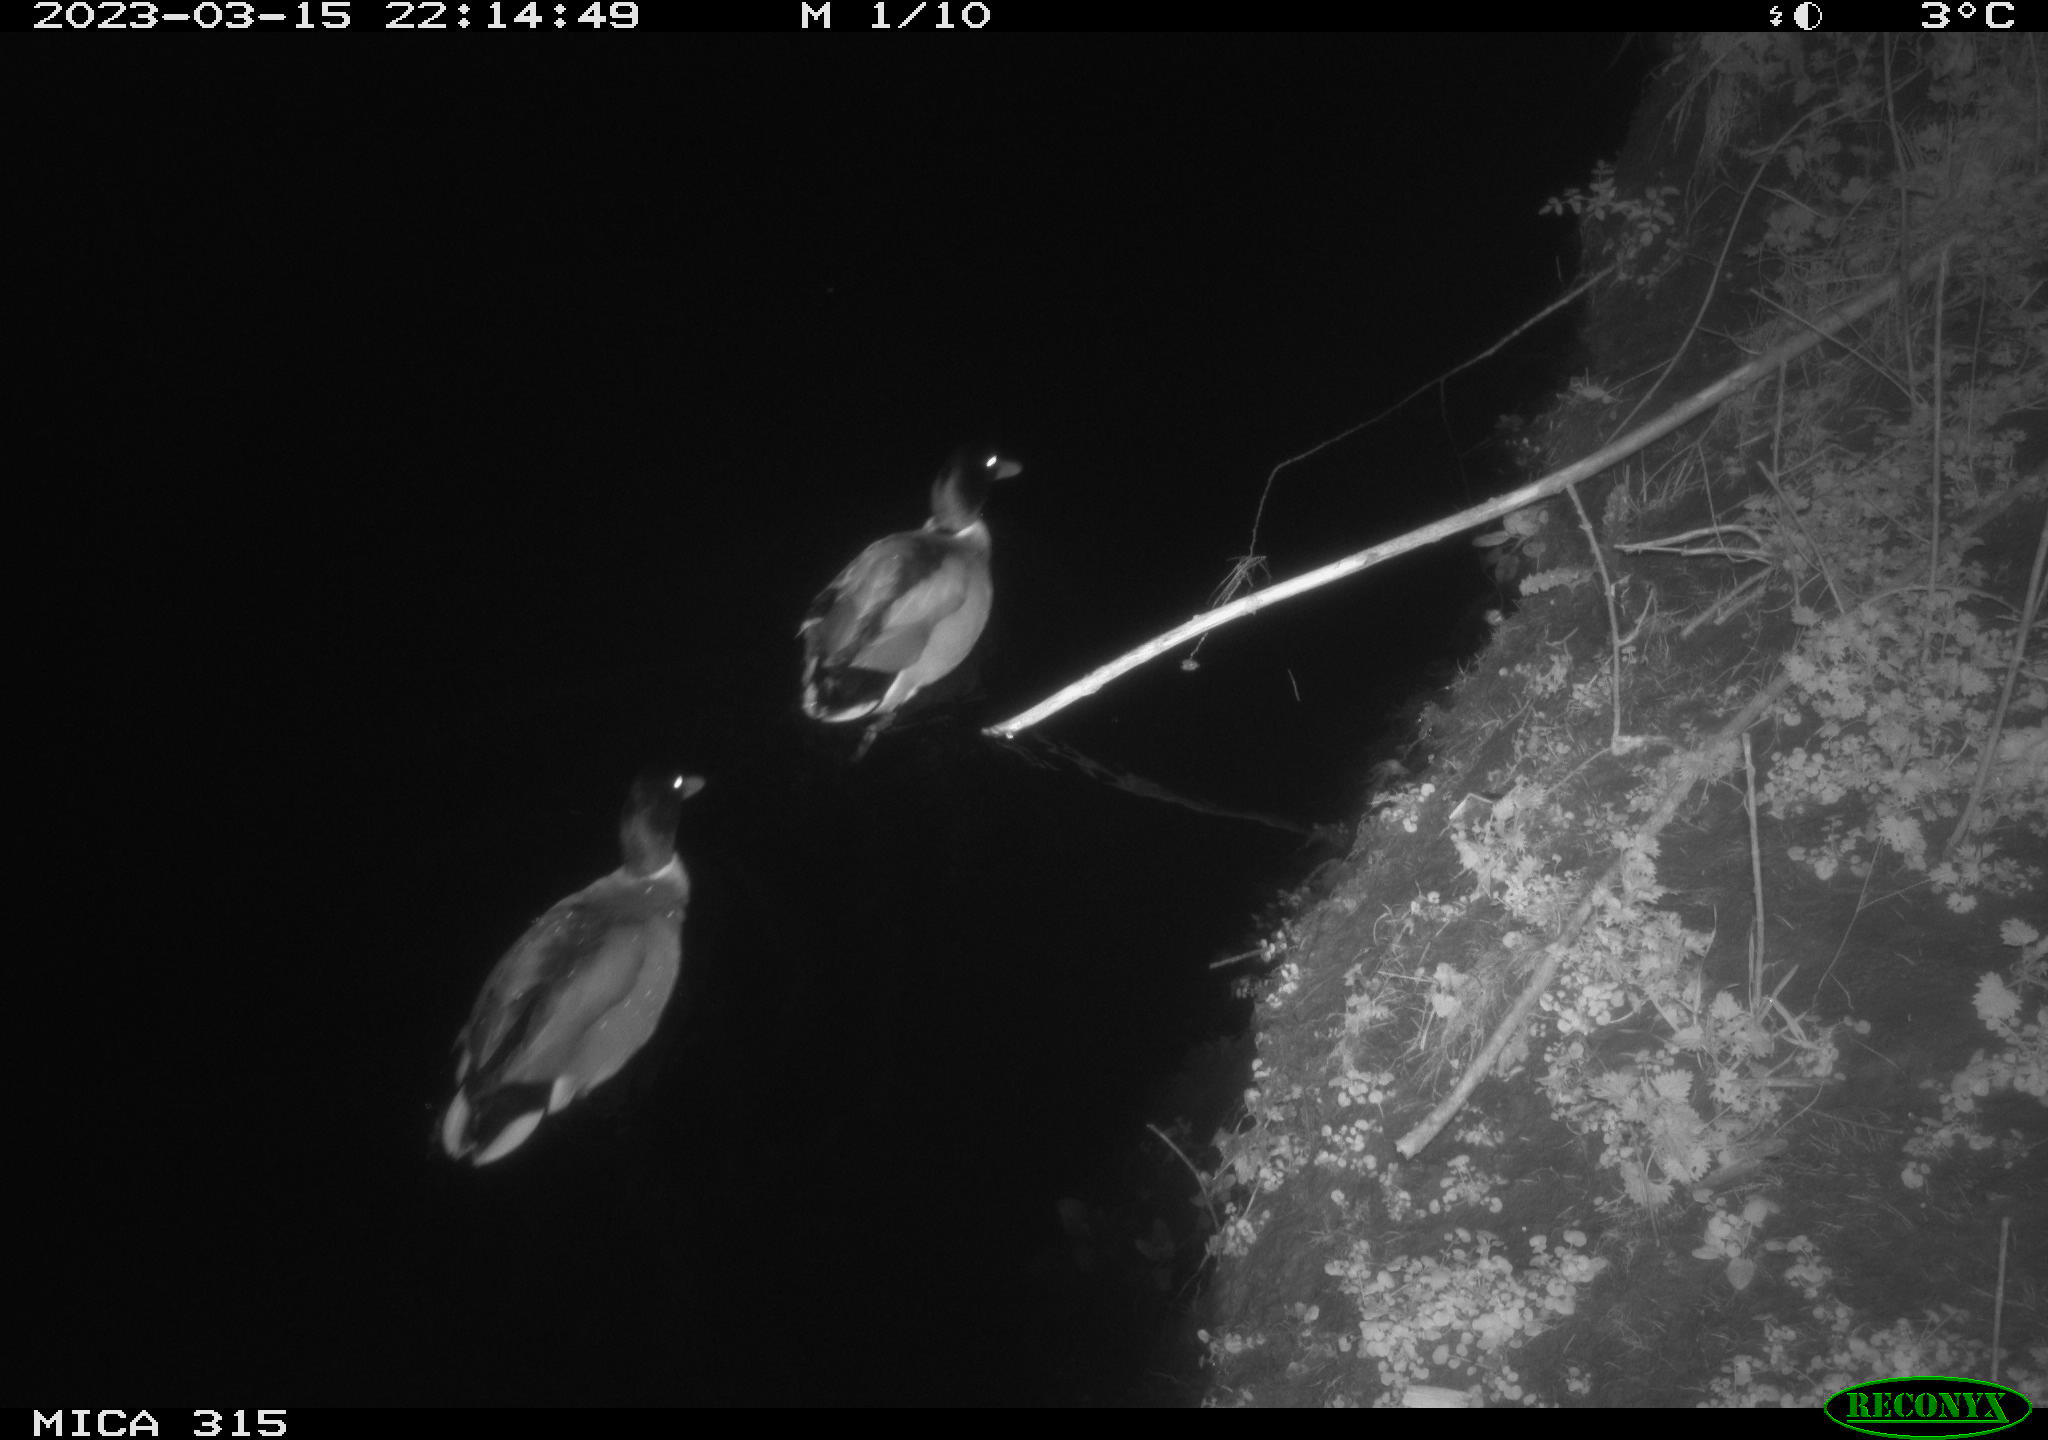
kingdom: Animalia
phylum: Chordata
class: Aves
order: Anseriformes
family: Anatidae
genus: Anas
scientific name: Anas
